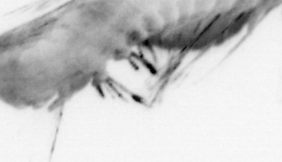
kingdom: Animalia
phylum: Annelida
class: Polychaeta
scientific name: Polychaeta
